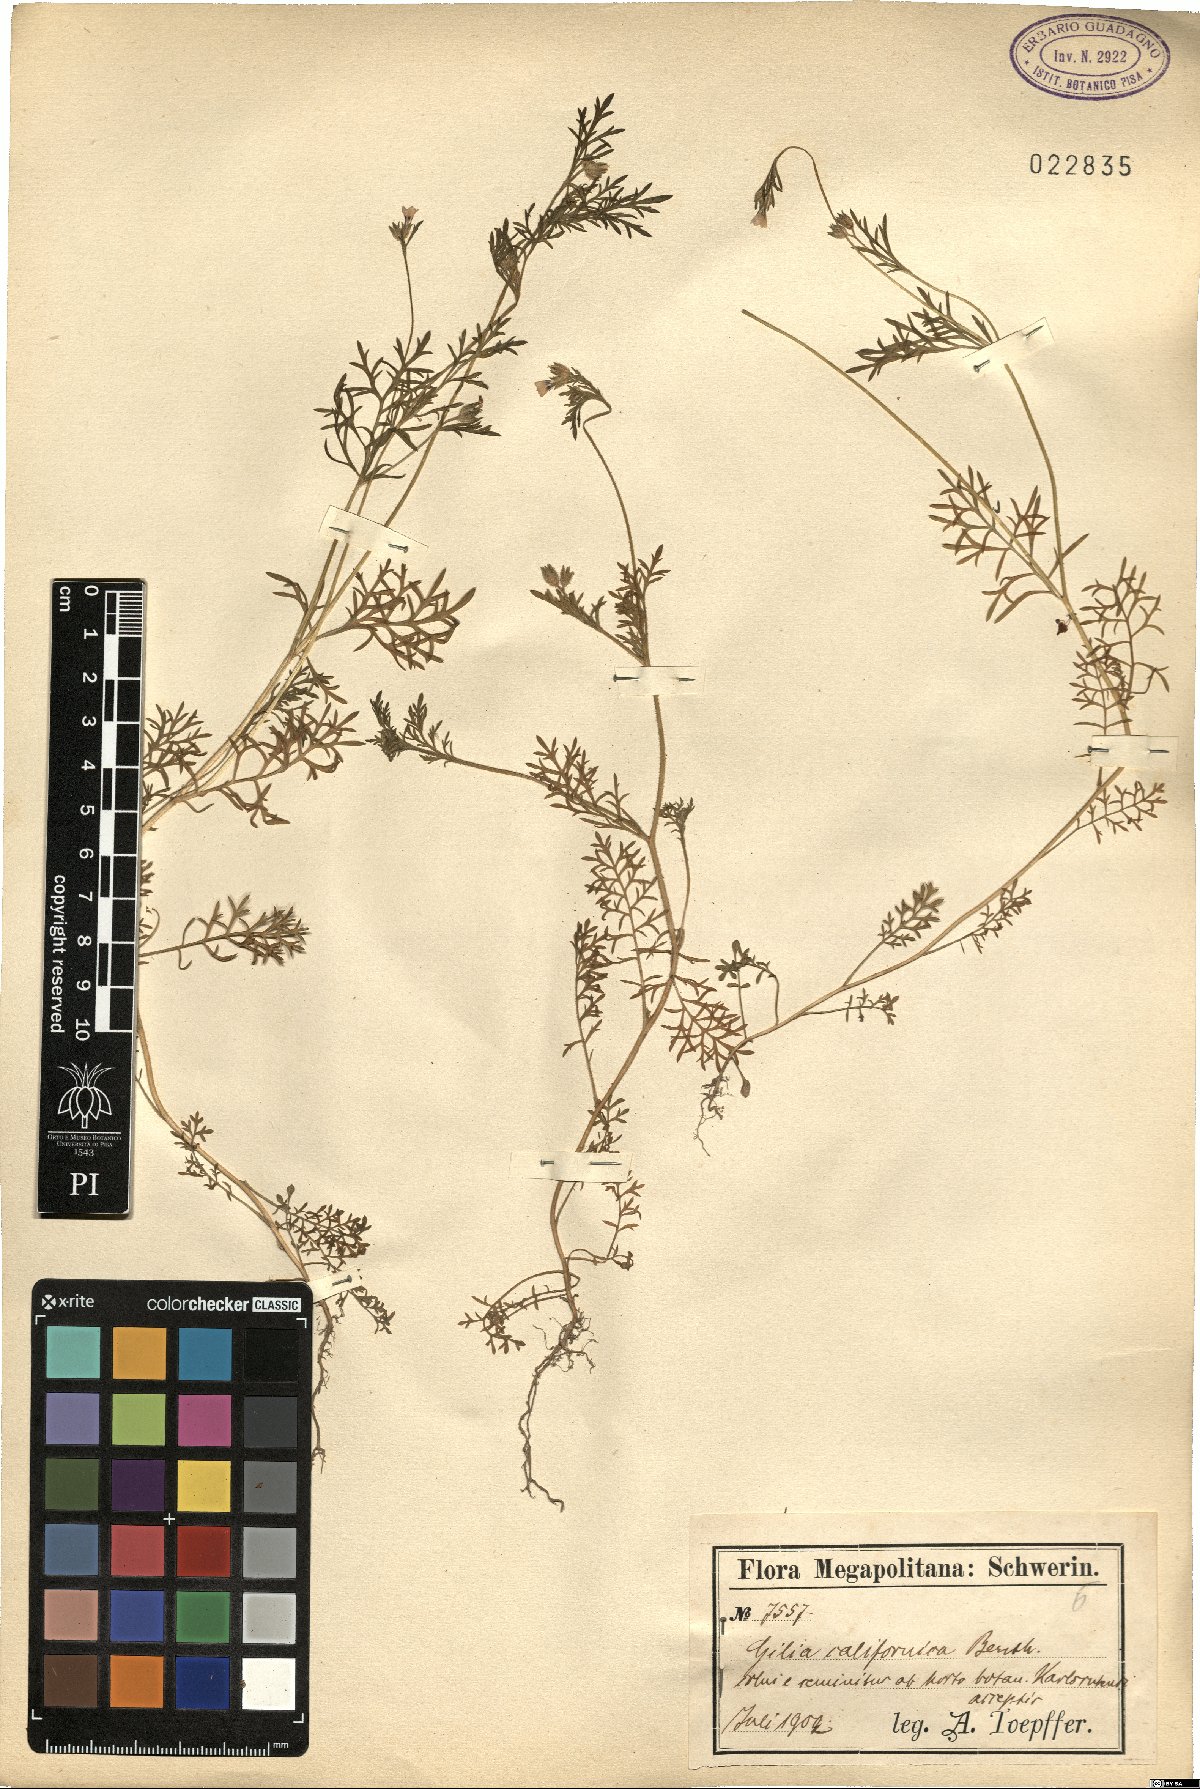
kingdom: Plantae
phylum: Tracheophyta
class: Magnoliopsida
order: Ericales
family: Polemoniaceae
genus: Linanthus
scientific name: Linanthus californicus
